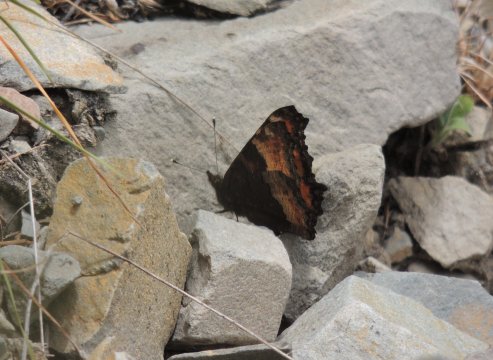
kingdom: Animalia
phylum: Arthropoda
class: Insecta
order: Lepidoptera
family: Nymphalidae
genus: Aglais
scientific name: Aglais milberti
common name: Milbert's Tortoiseshell
